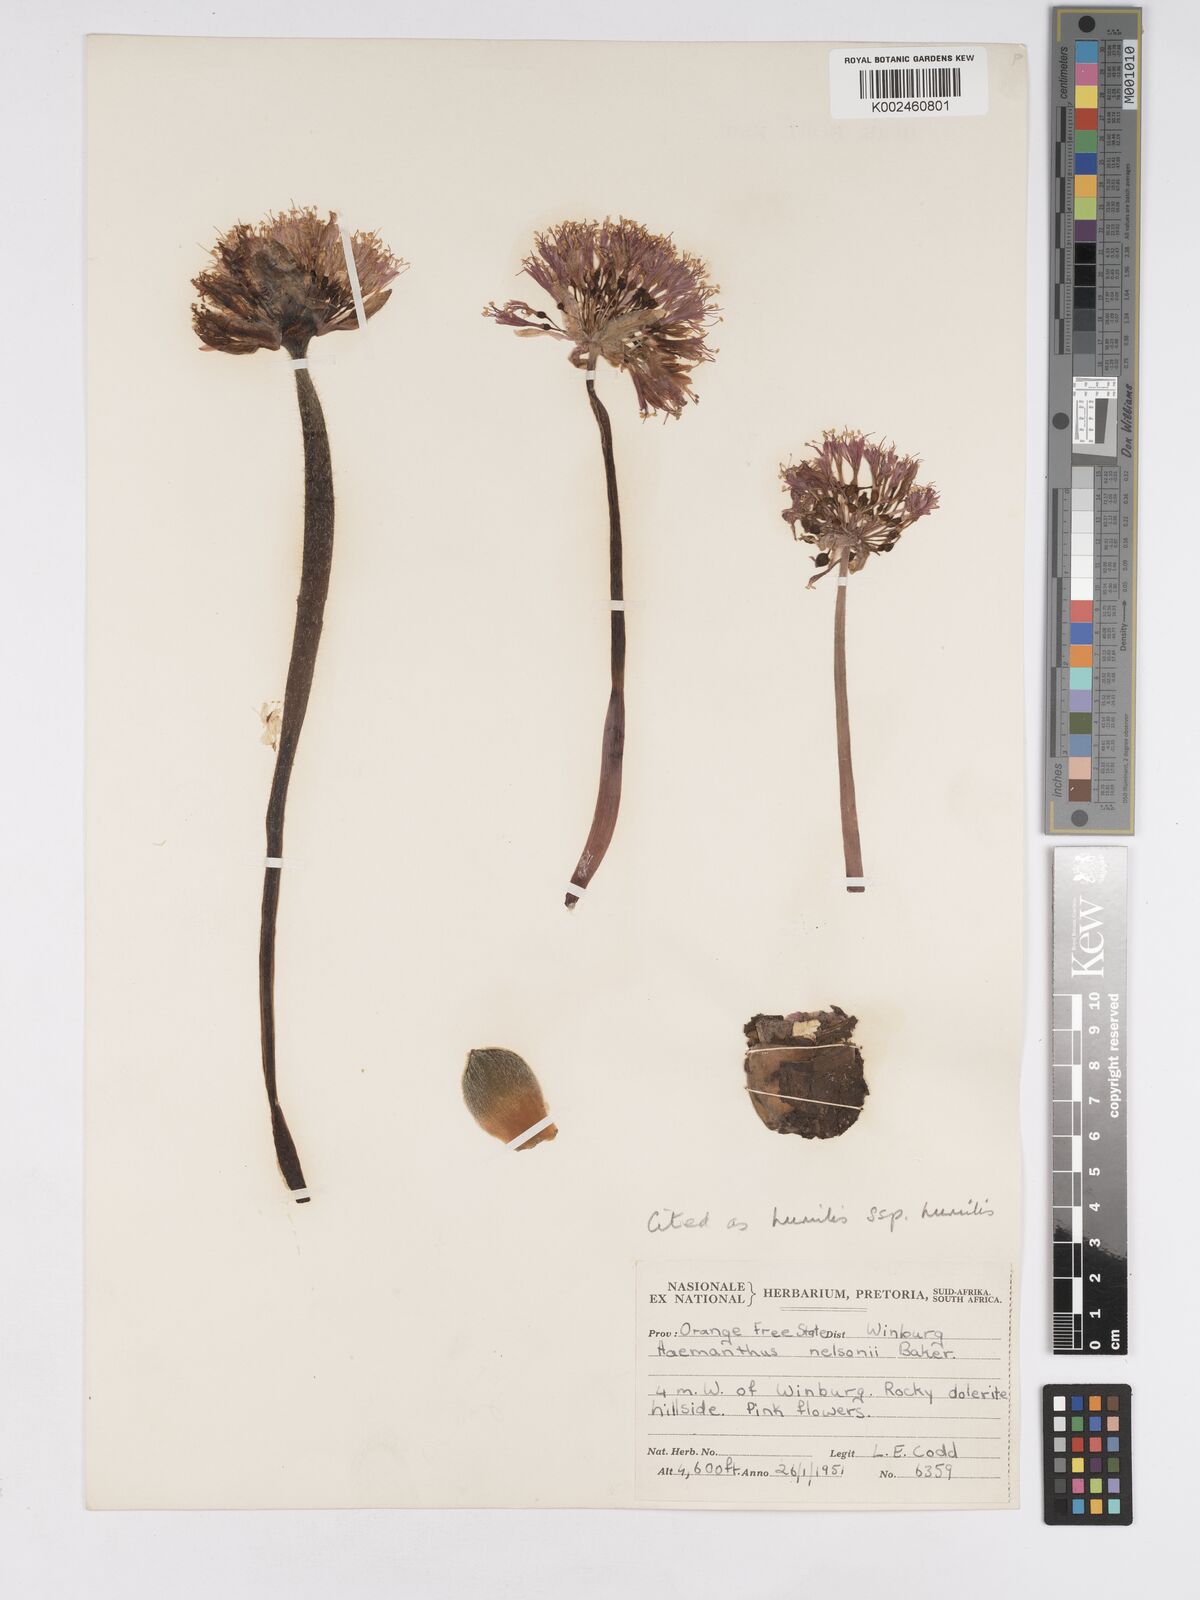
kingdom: Plantae
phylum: Tracheophyta
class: Liliopsida
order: Asparagales
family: Amaryllidaceae
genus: Haemanthus
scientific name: Haemanthus humilis
